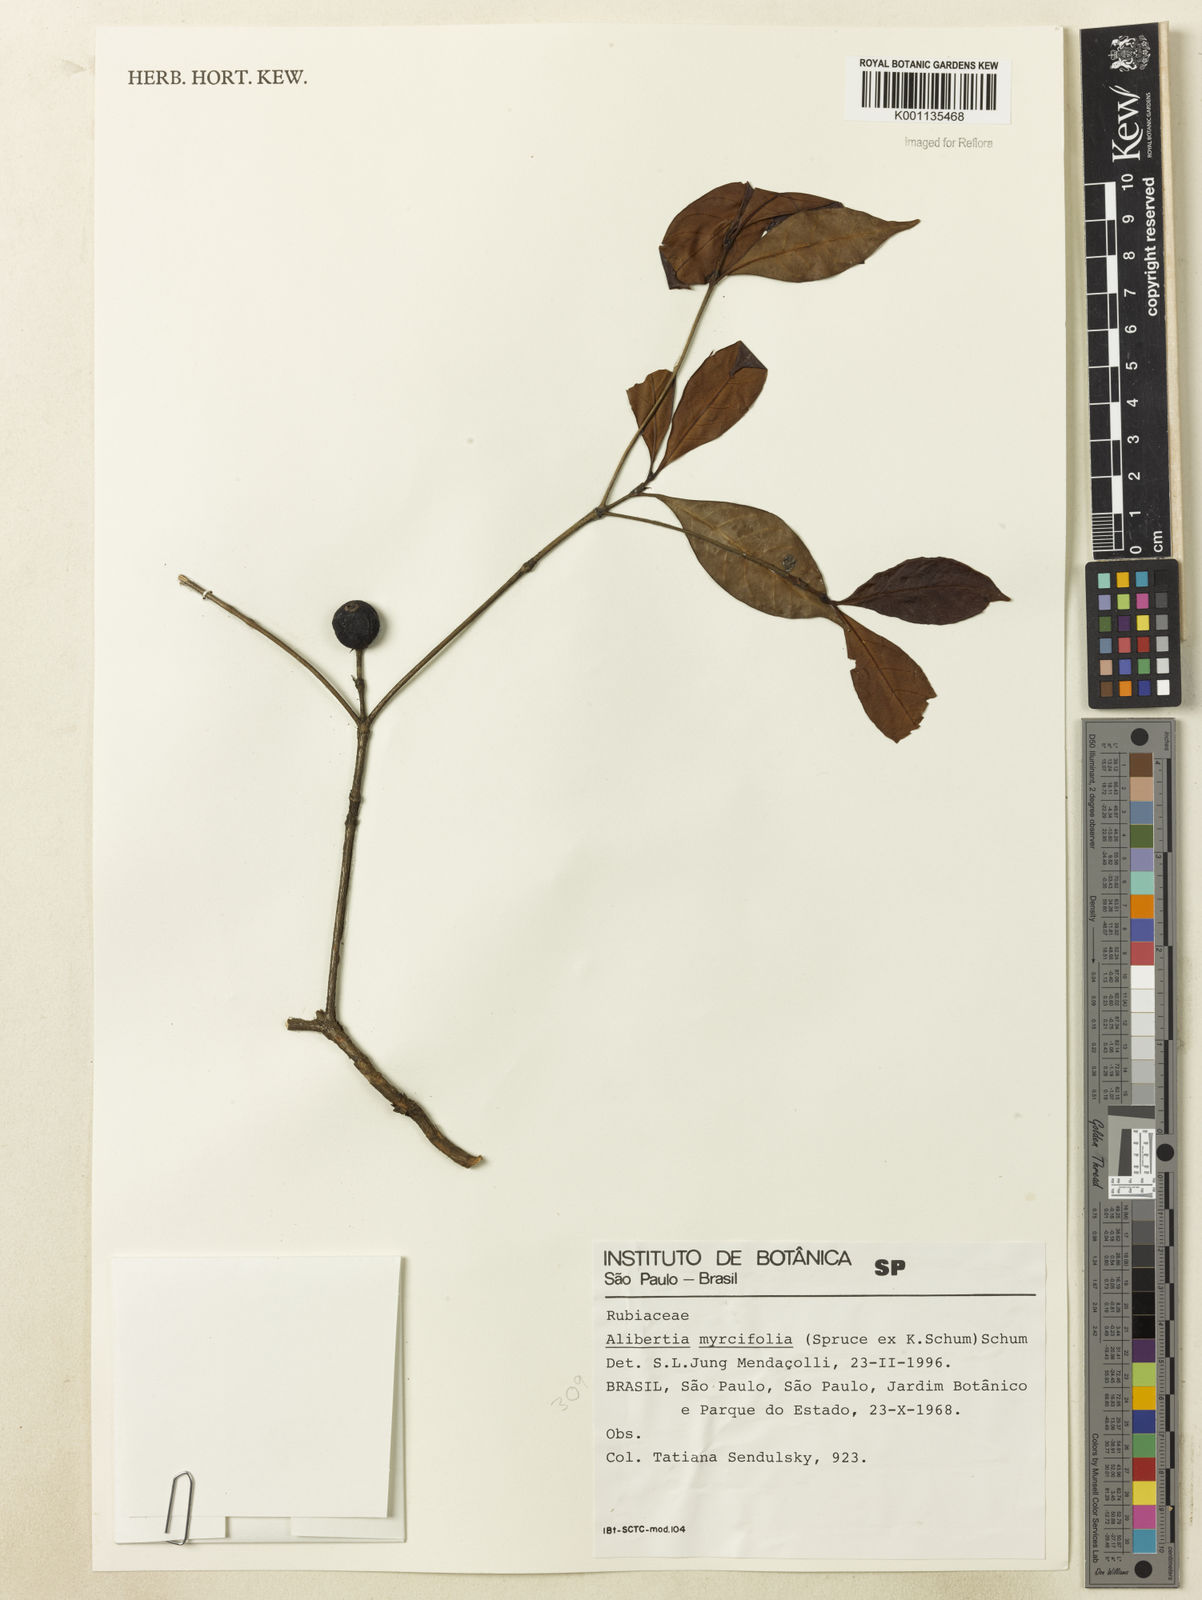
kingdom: Plantae
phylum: Tracheophyta
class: Magnoliopsida
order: Gentianales
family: Rubiaceae
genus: Cordiera
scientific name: Cordiera myrciifolia
